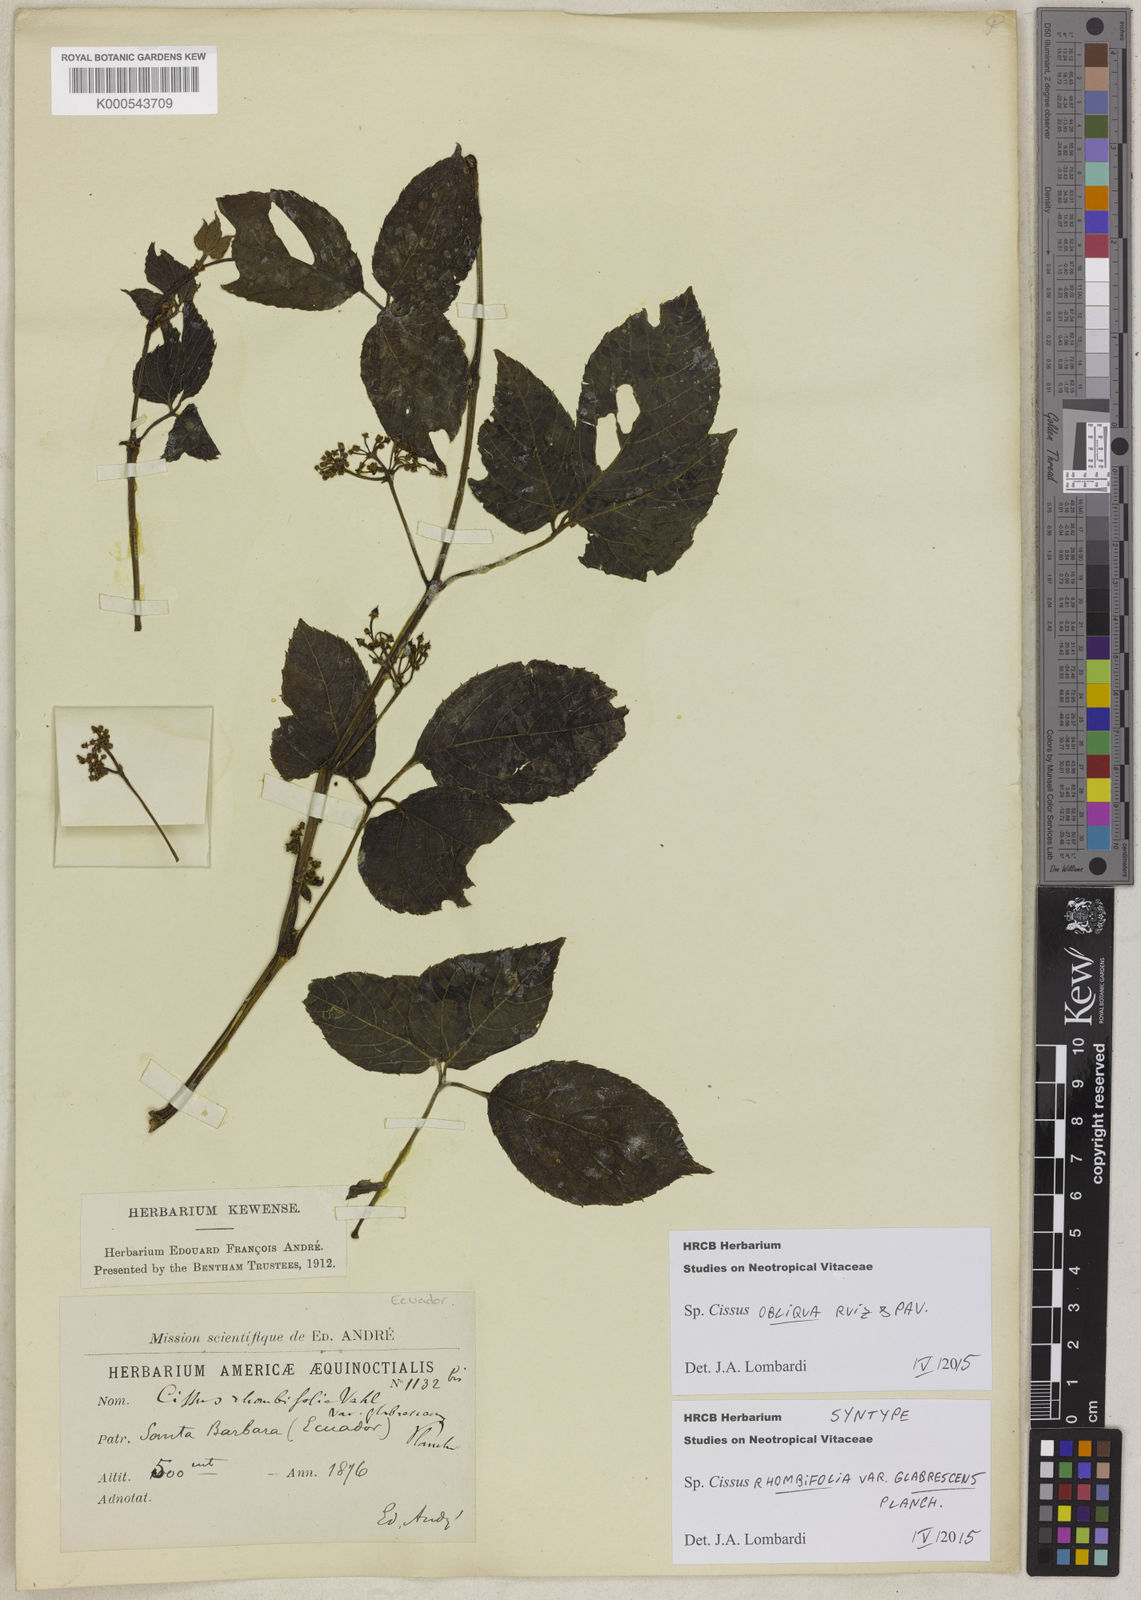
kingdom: Plantae
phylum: Tracheophyta
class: Magnoliopsida
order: Vitales
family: Vitaceae
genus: Cissus
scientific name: Cissus obliqua
